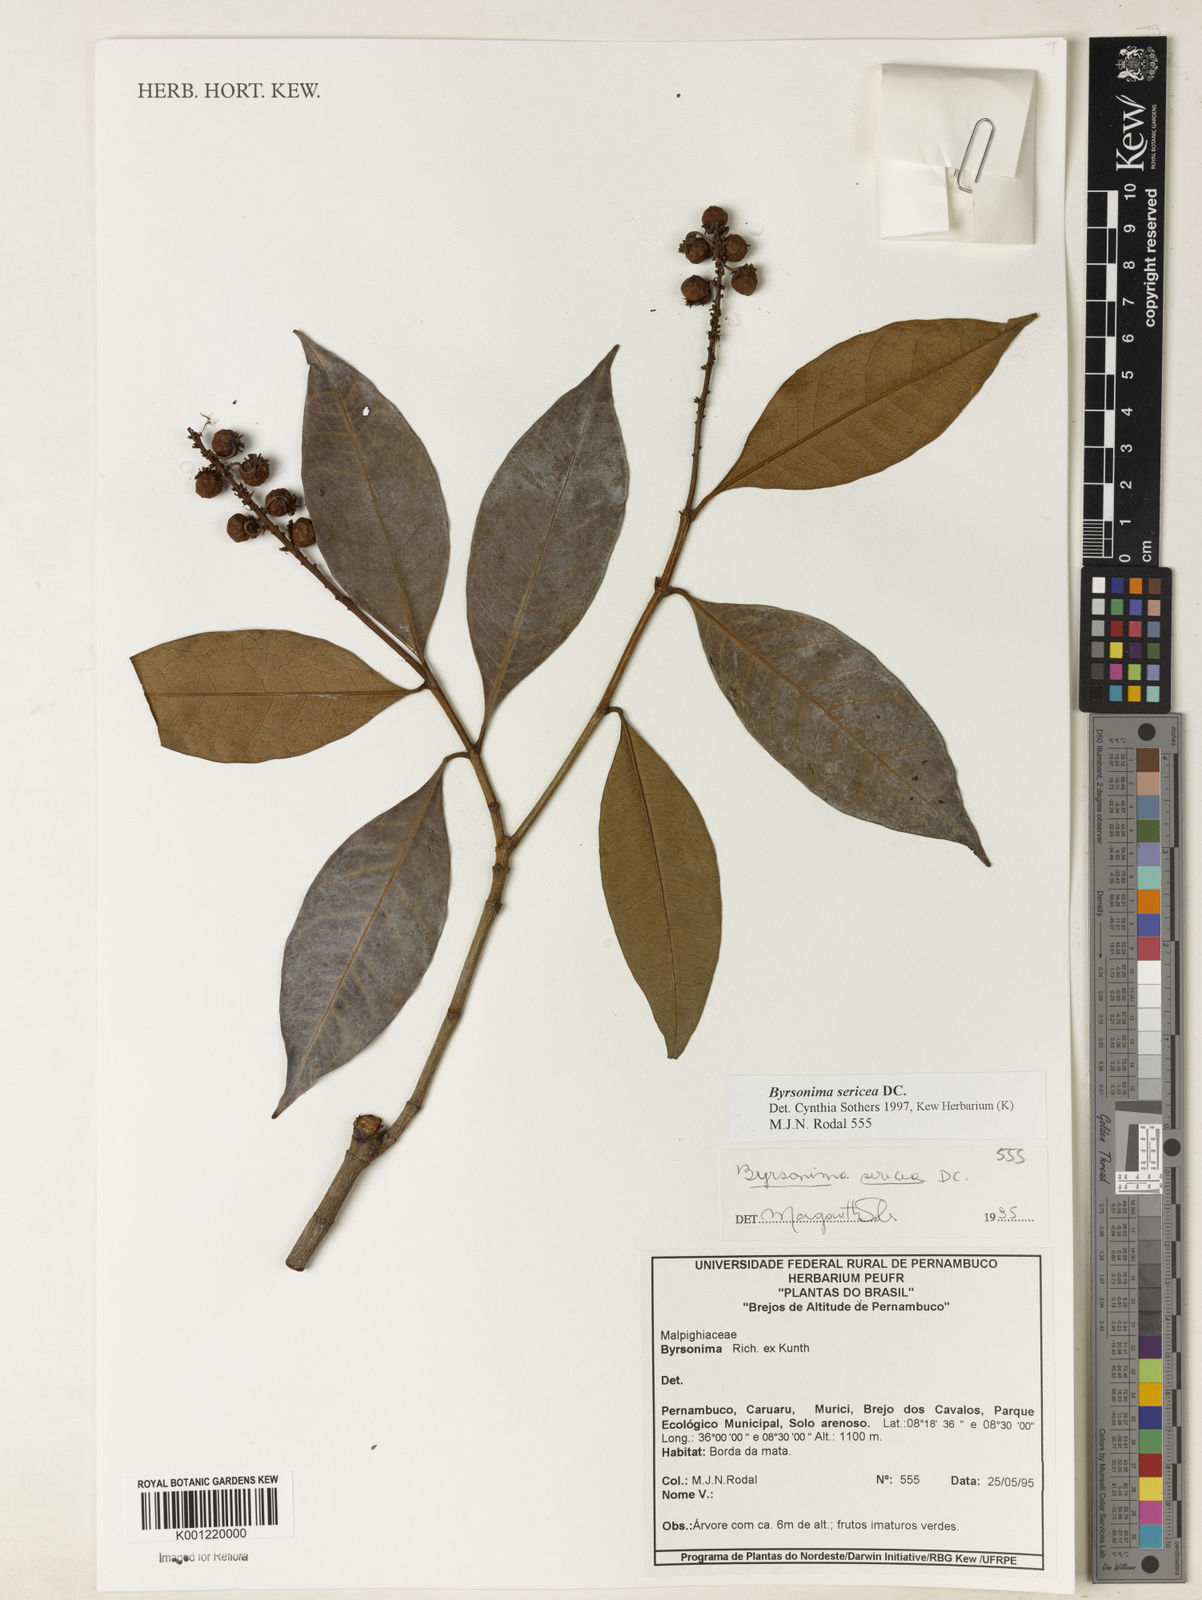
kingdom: Plantae
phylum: Tracheophyta
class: Magnoliopsida
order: Malpighiales
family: Malpighiaceae
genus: Byrsonima
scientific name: Byrsonima sericea
